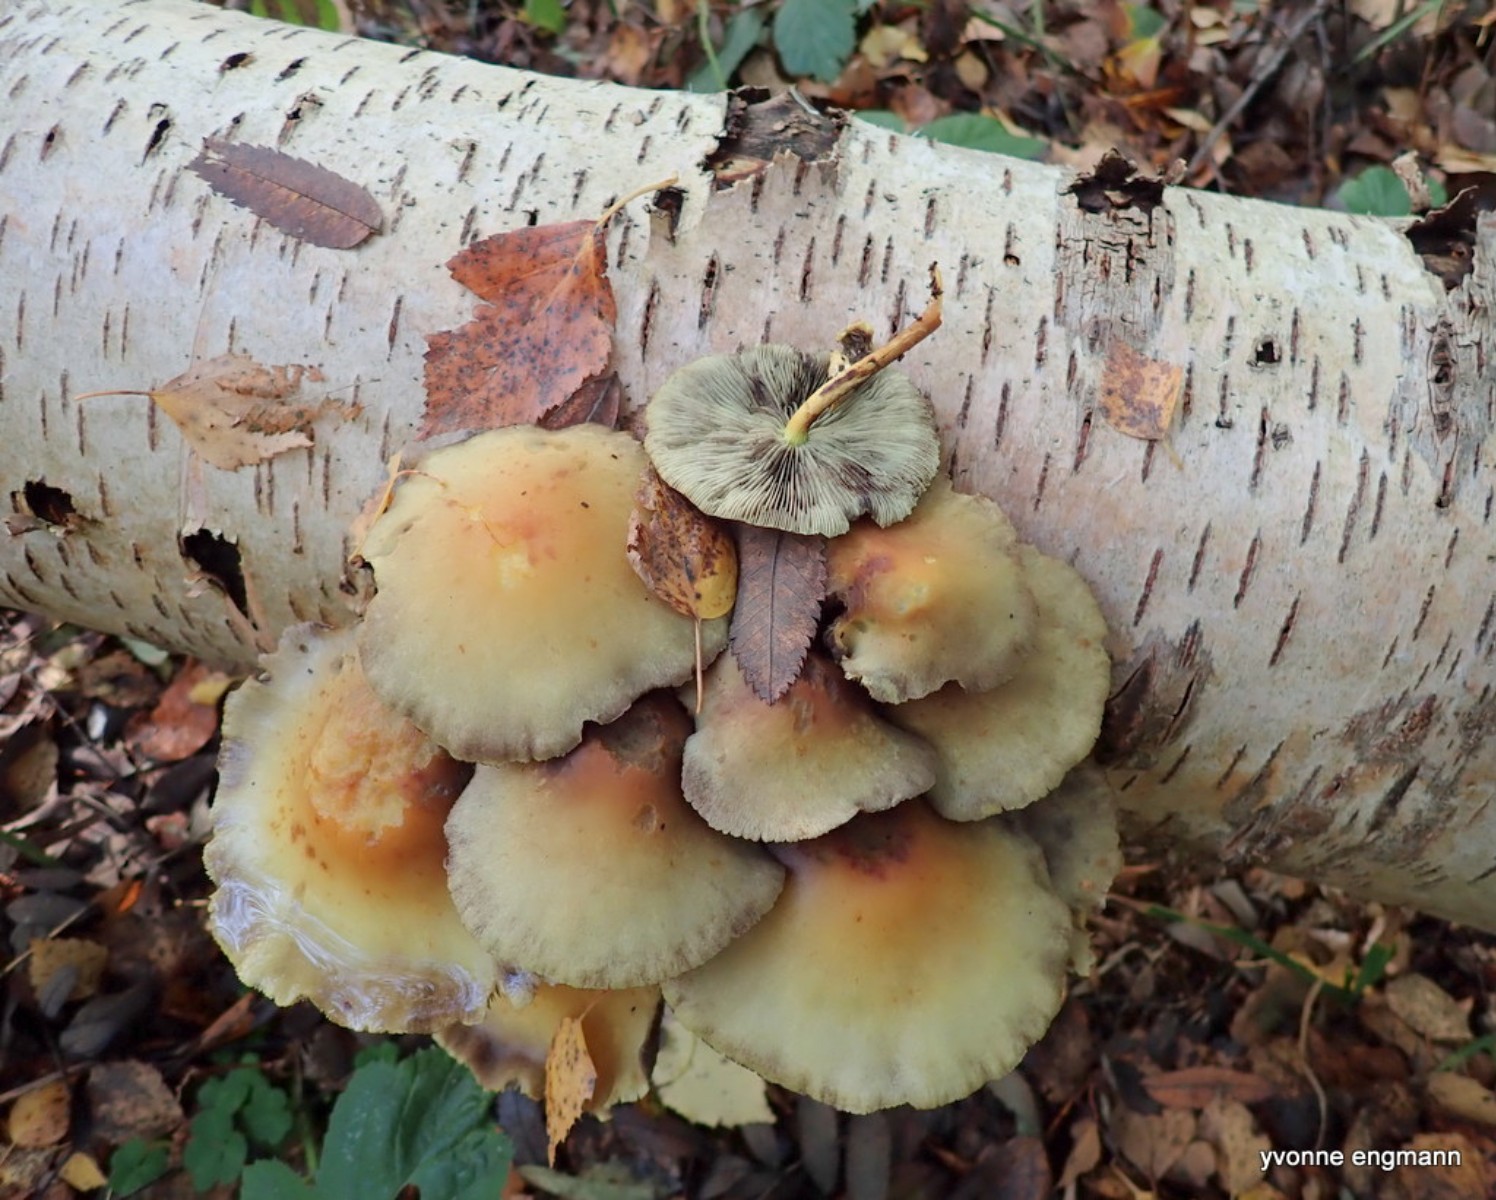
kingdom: Fungi
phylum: Basidiomycota
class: Agaricomycetes
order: Agaricales
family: Strophariaceae
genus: Hypholoma
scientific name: Hypholoma fasciculare
